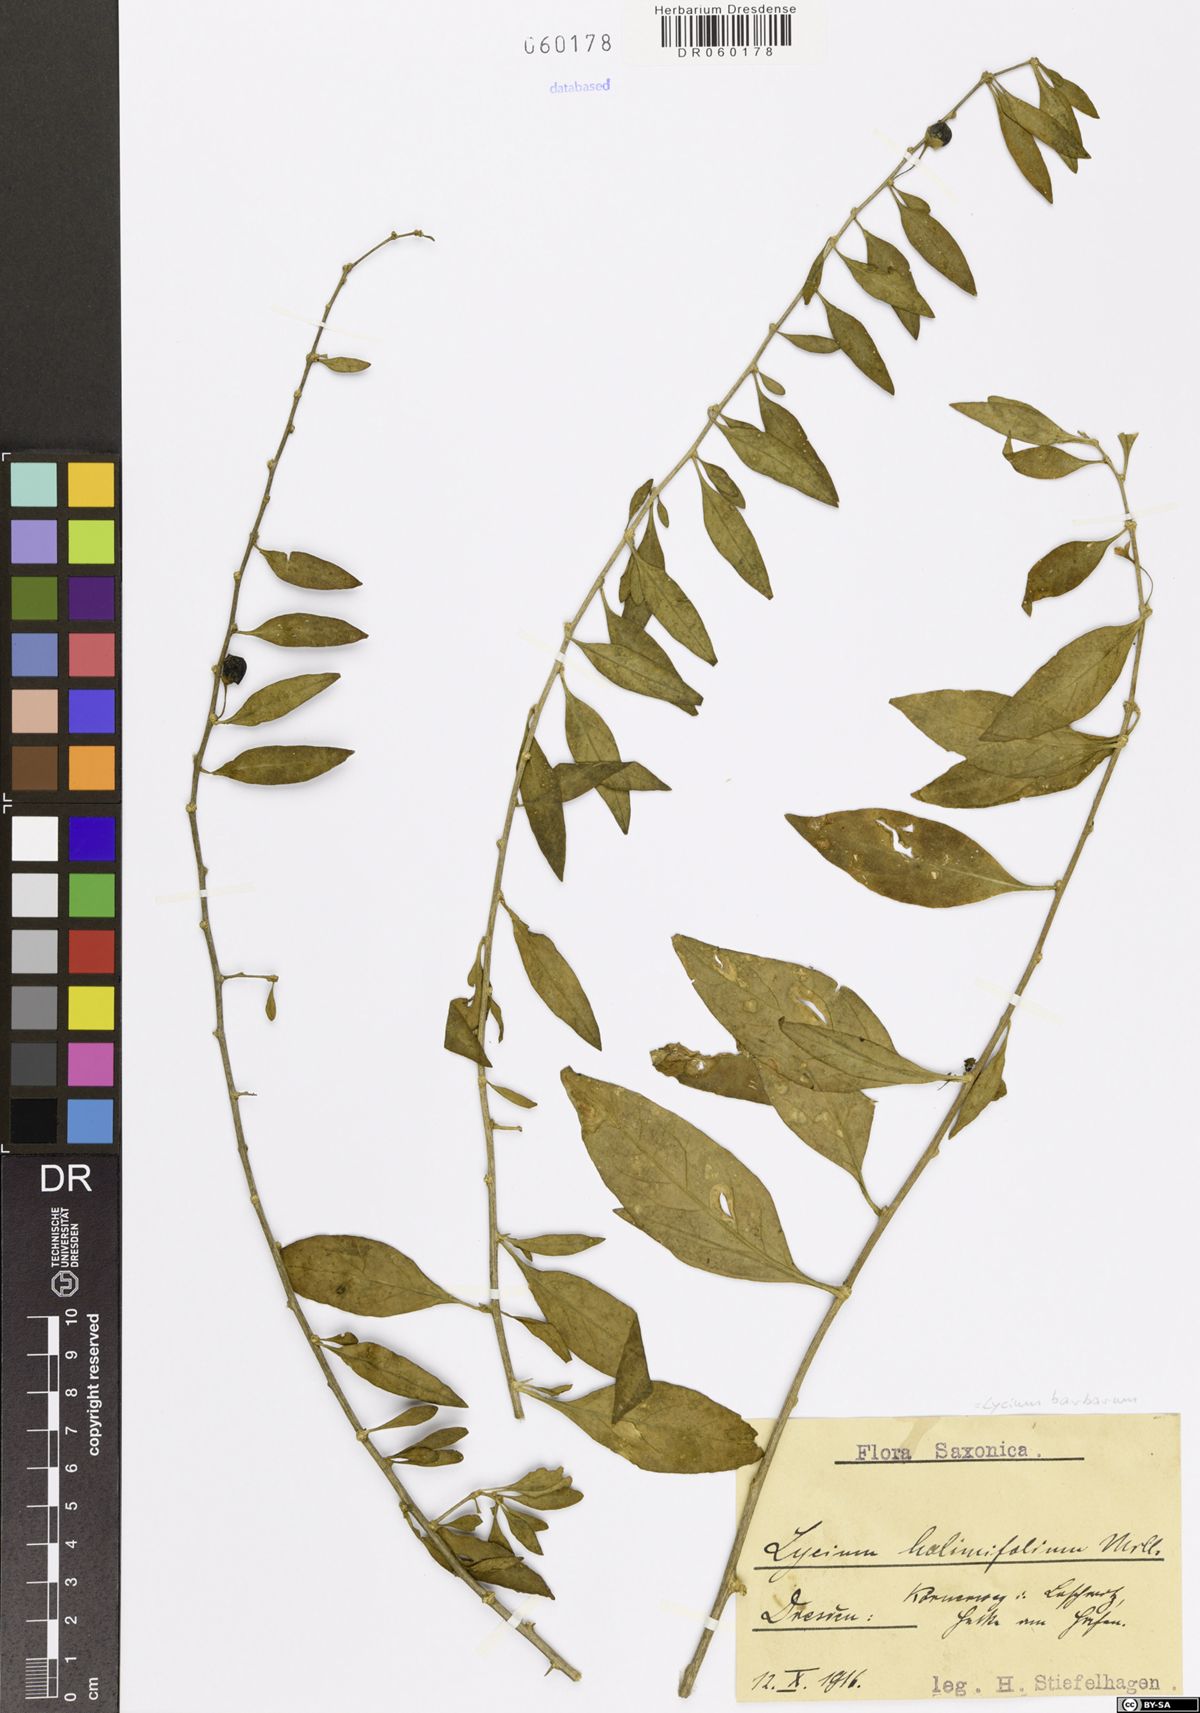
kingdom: Plantae
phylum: Tracheophyta
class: Magnoliopsida
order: Solanales
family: Solanaceae
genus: Lycium
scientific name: Lycium barbarum
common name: Duke of argyll's teaplant
